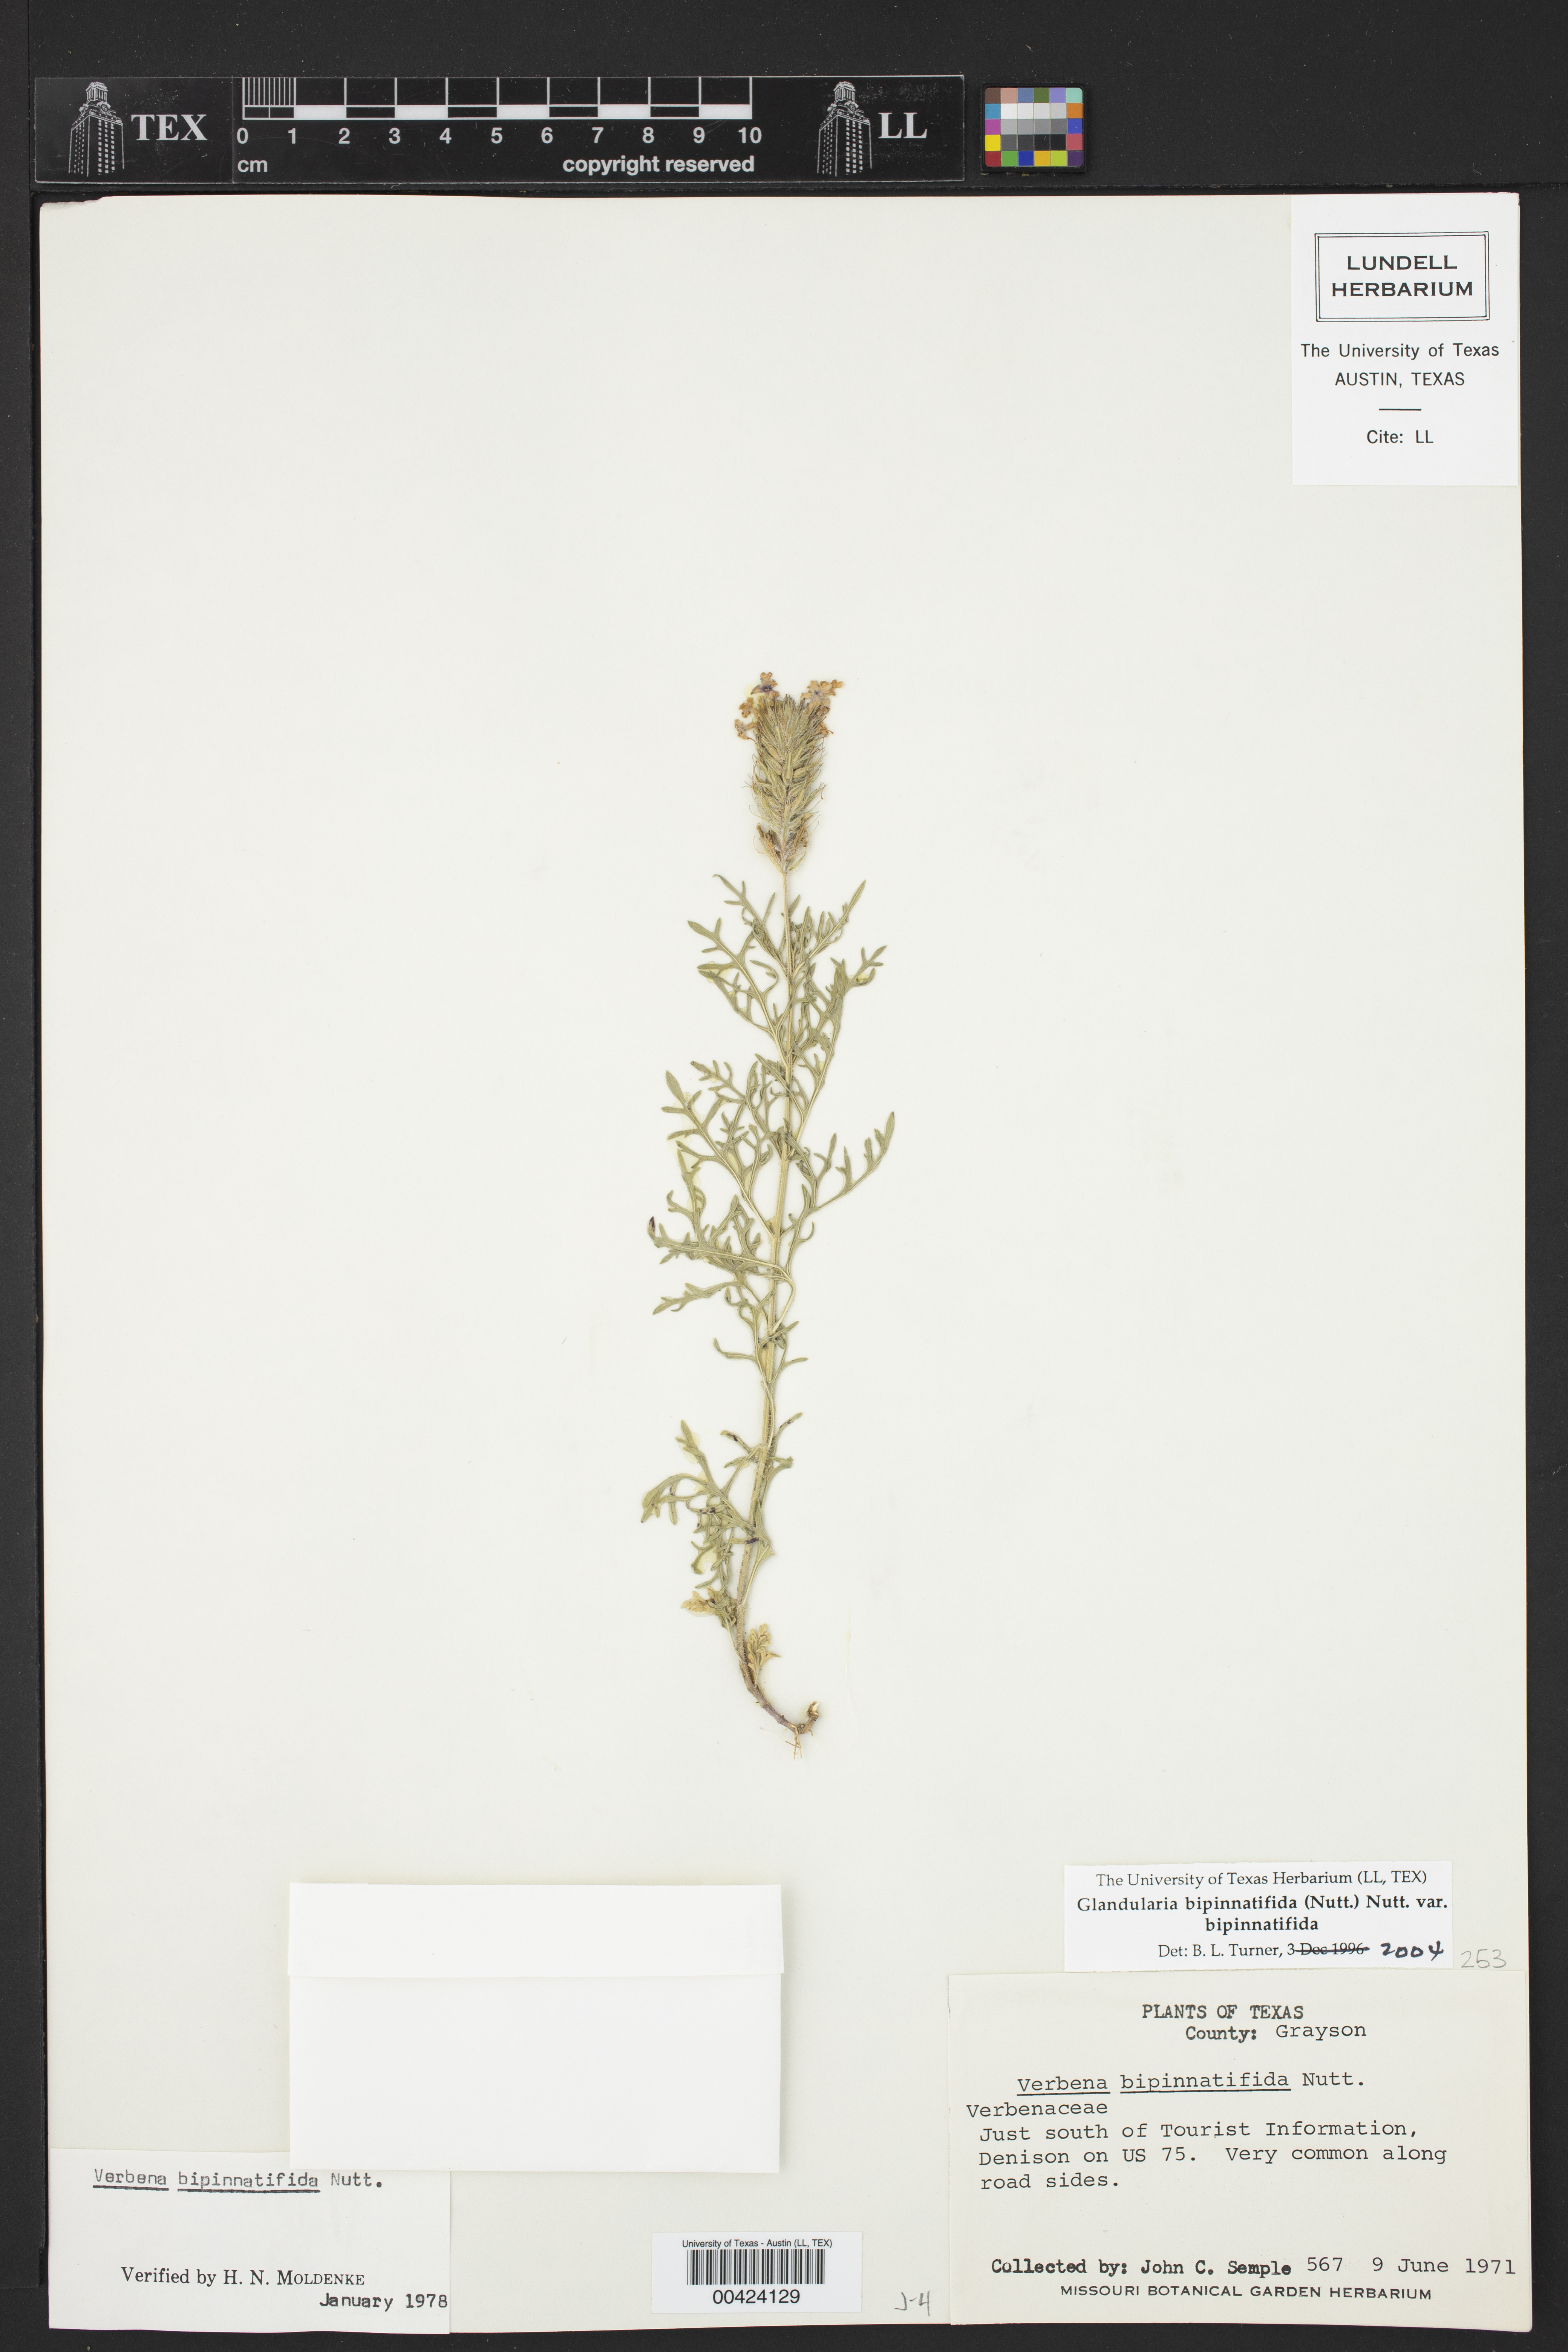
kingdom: Plantae
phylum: Tracheophyta
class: Magnoliopsida
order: Lamiales
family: Verbenaceae
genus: Verbena
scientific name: Verbena bipinnatifida
